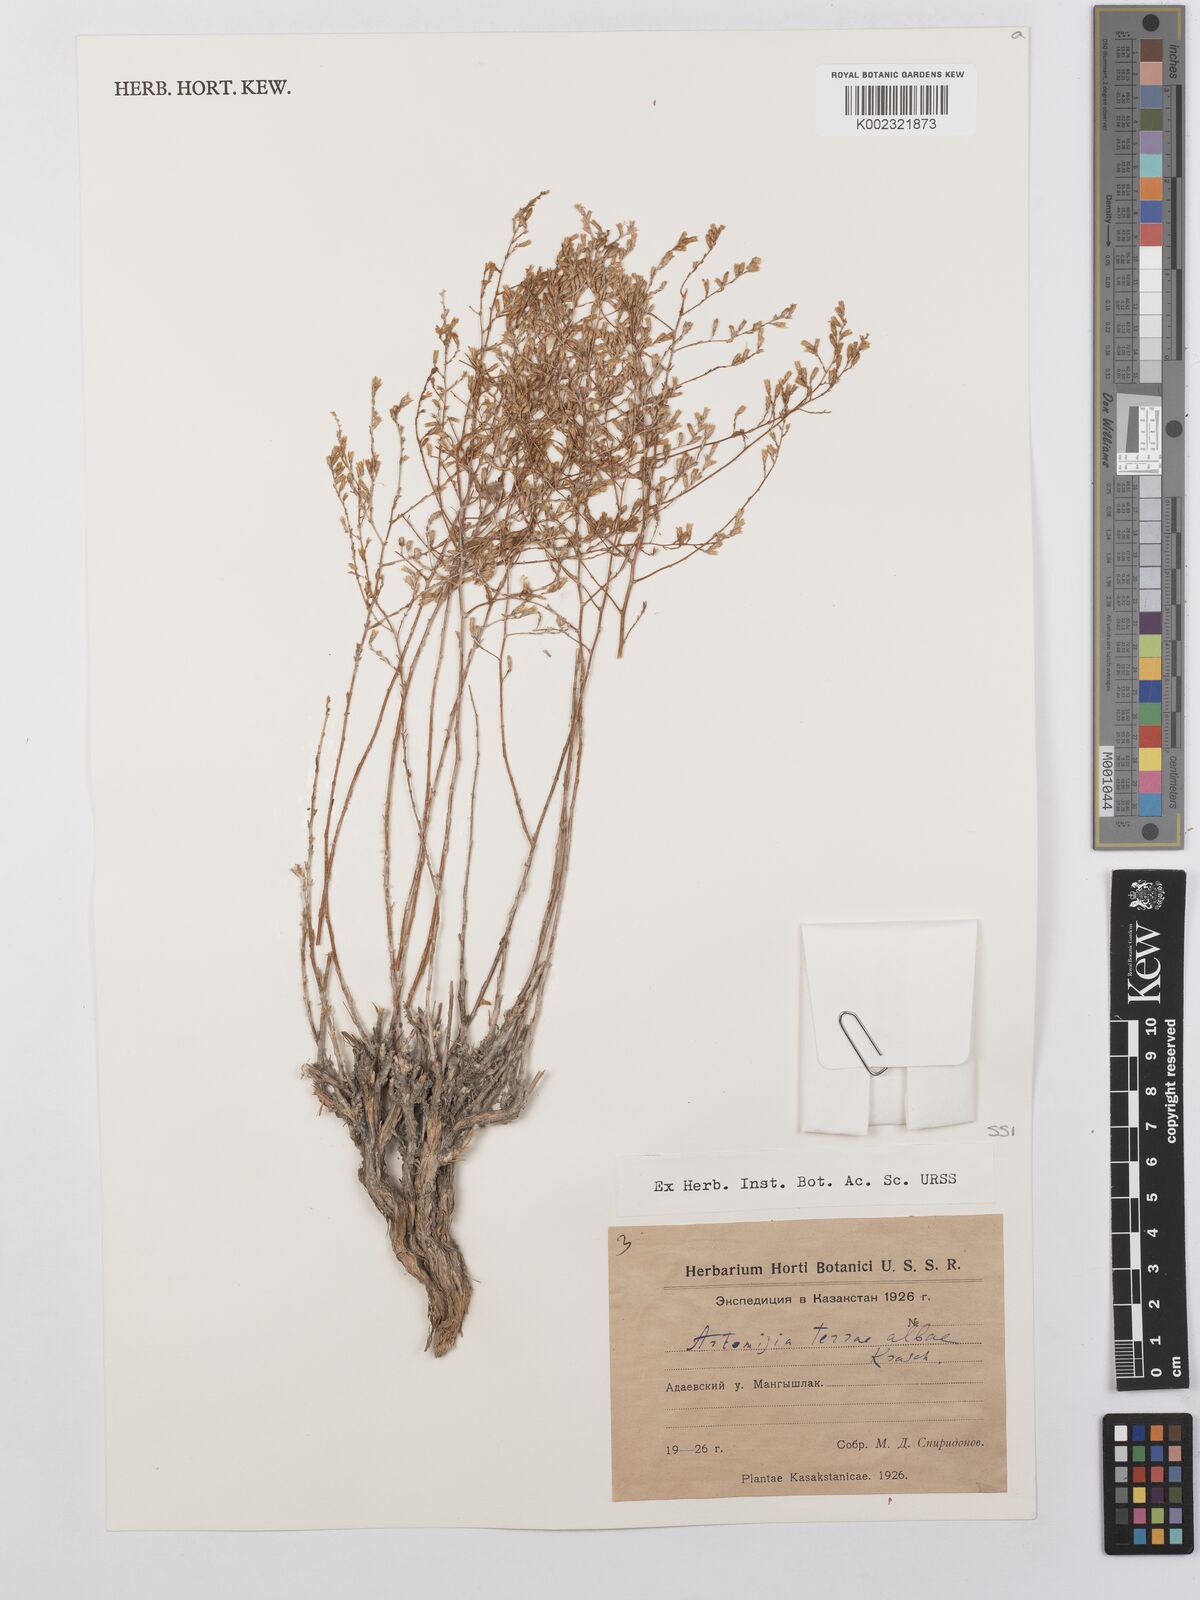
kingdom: Plantae
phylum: Tracheophyta
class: Magnoliopsida
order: Asterales
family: Asteraceae
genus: Artemisia
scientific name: Artemisia terrae-albae
